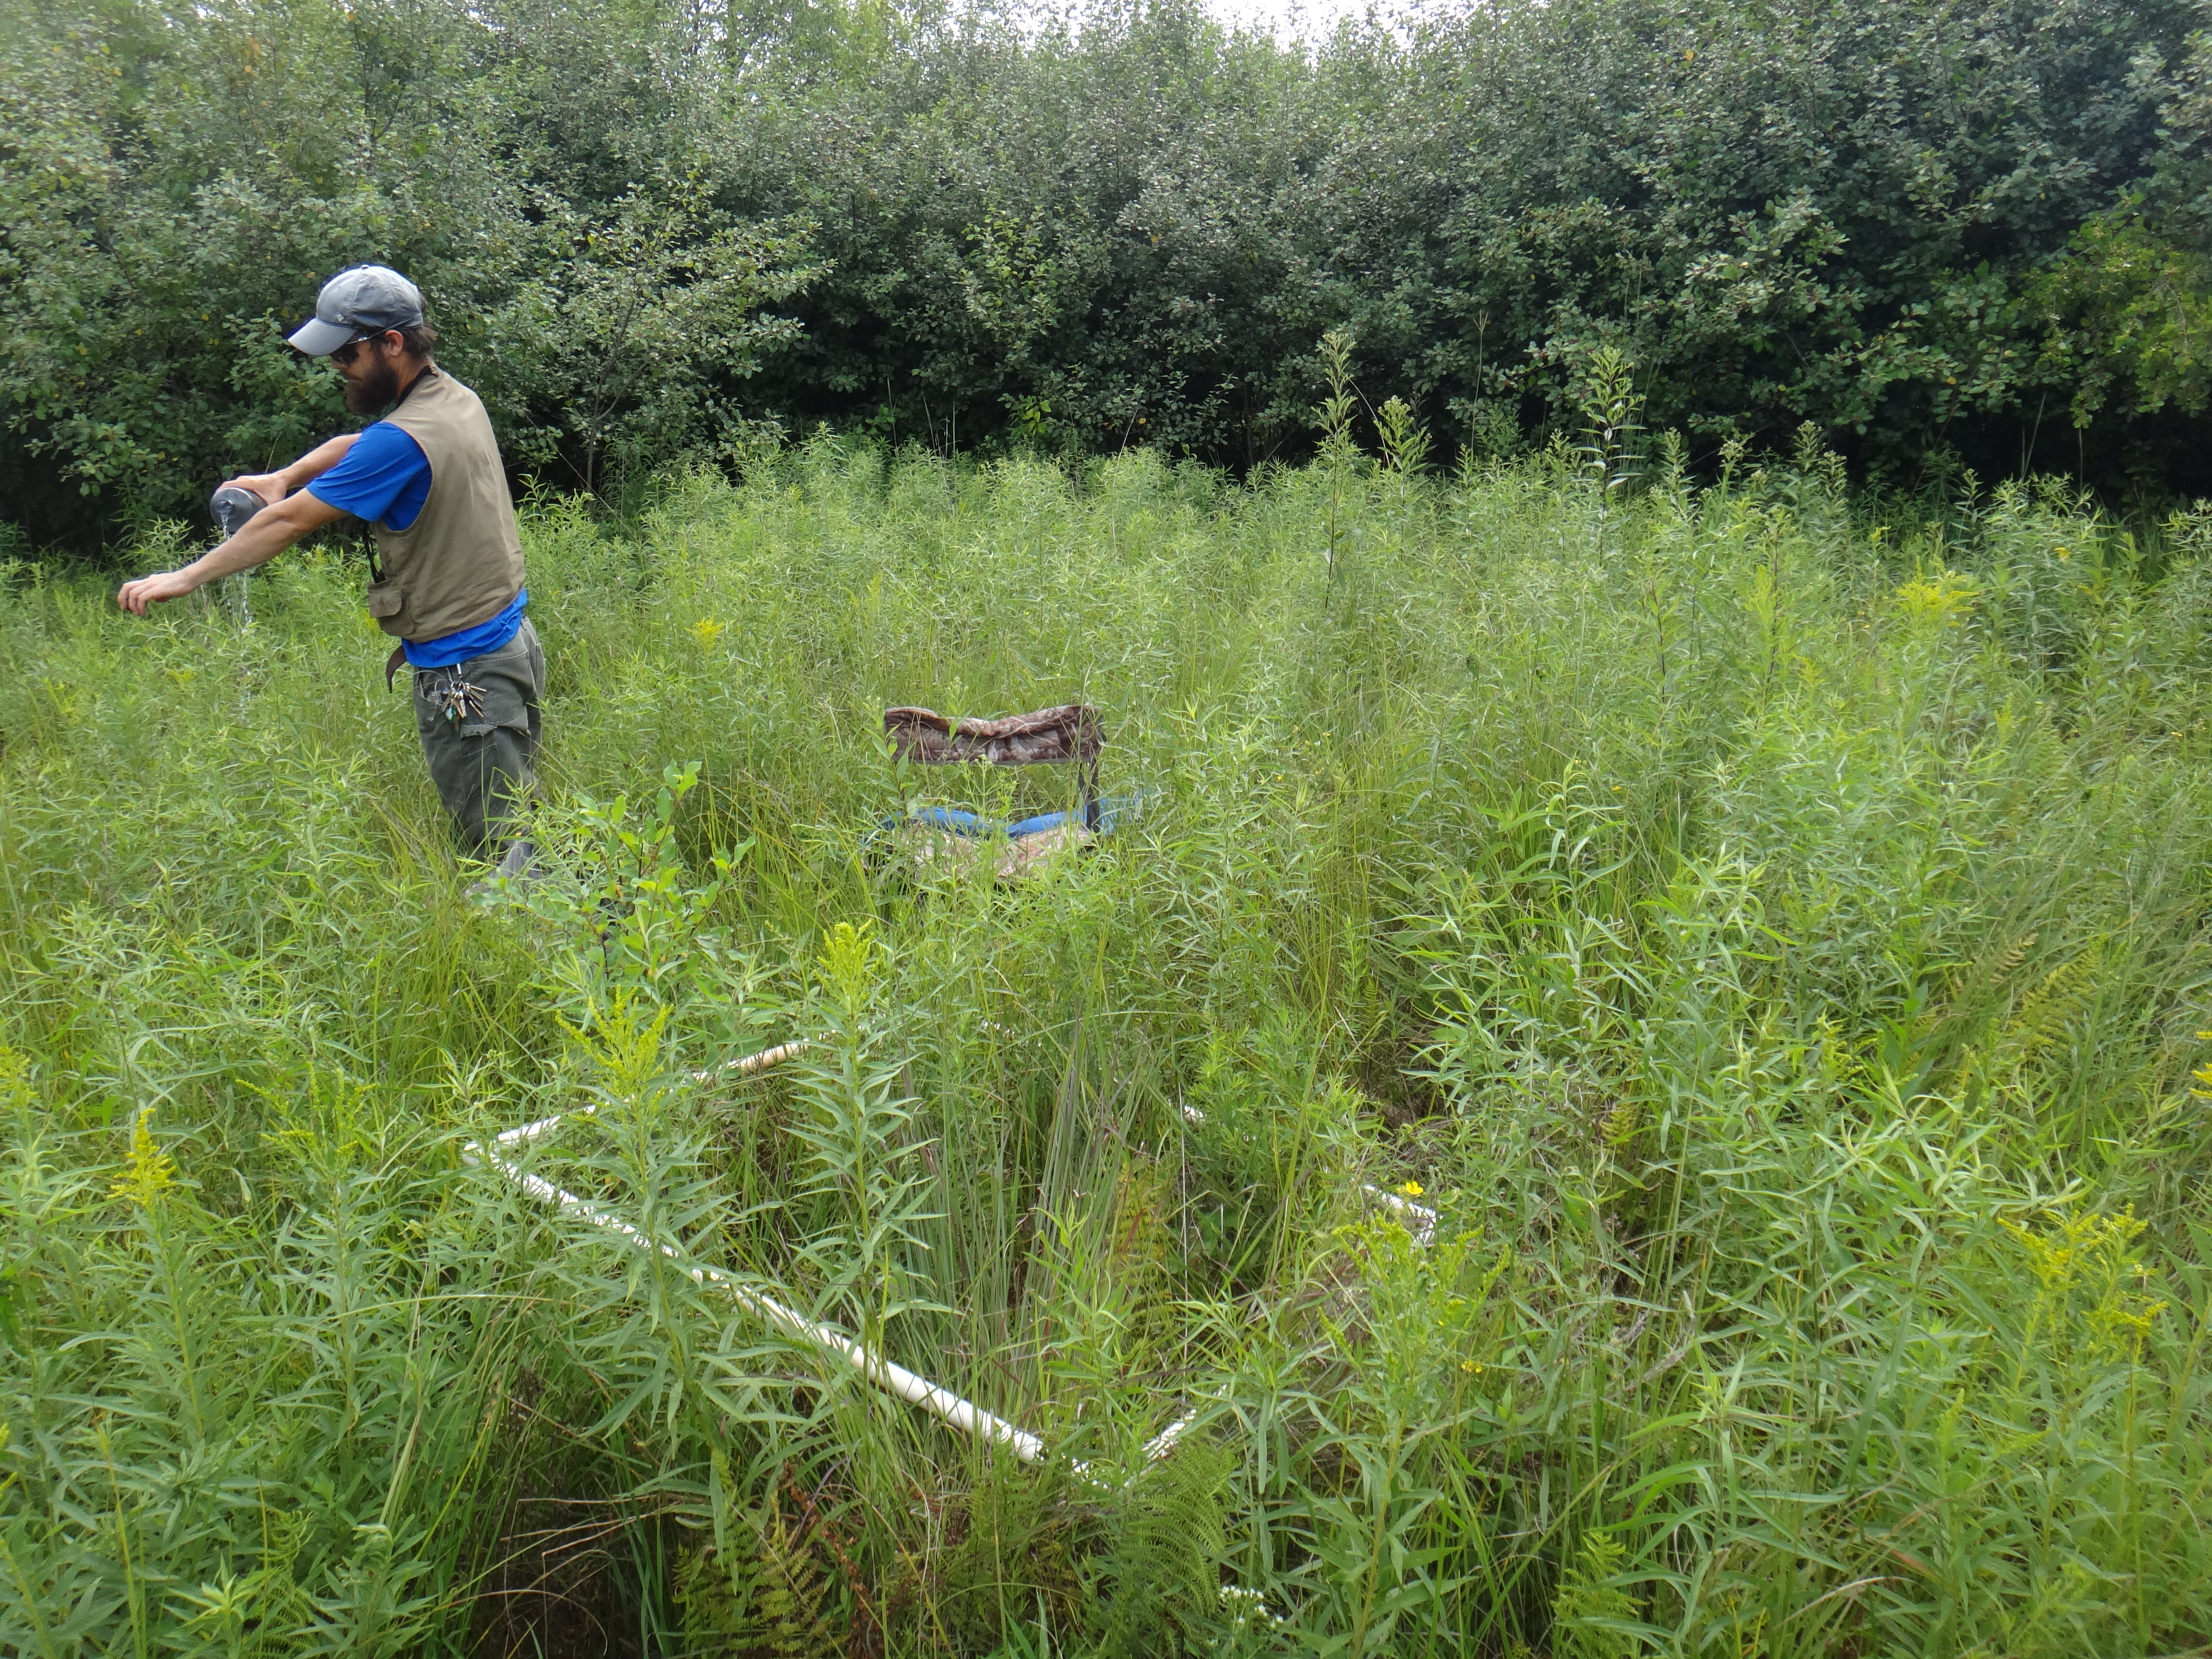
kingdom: Plantae
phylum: Tracheophyta
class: Magnoliopsida
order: Lamiales
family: Lamiaceae
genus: Pycnanthemum
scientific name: Pycnanthemum virginianum
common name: Virginia mountain-mint
